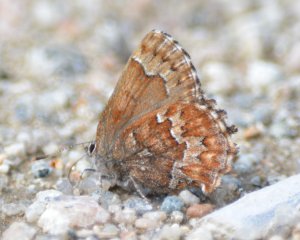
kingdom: Animalia
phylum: Arthropoda
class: Insecta
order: Lepidoptera
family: Lycaenidae
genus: Incisalia
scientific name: Incisalia niphon
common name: Eastern Pine Elfin
